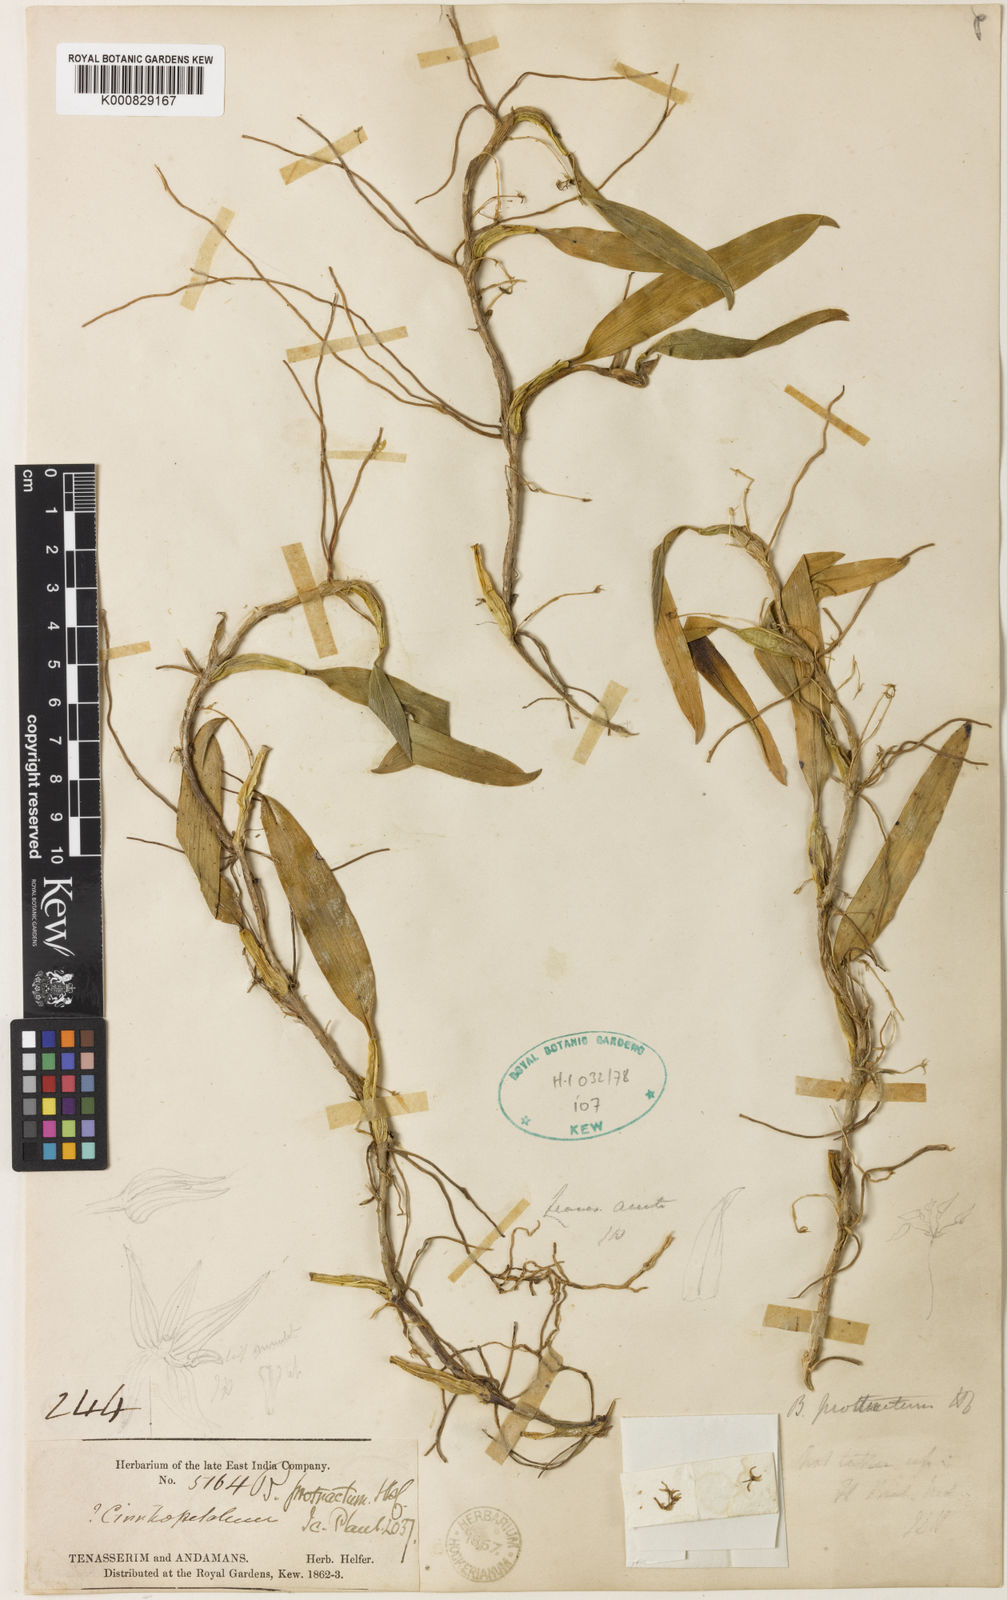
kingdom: Plantae
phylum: Tracheophyta
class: Liliopsida
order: Asparagales
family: Orchidaceae
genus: Bulbophyllum
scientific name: Bulbophyllum protractum
